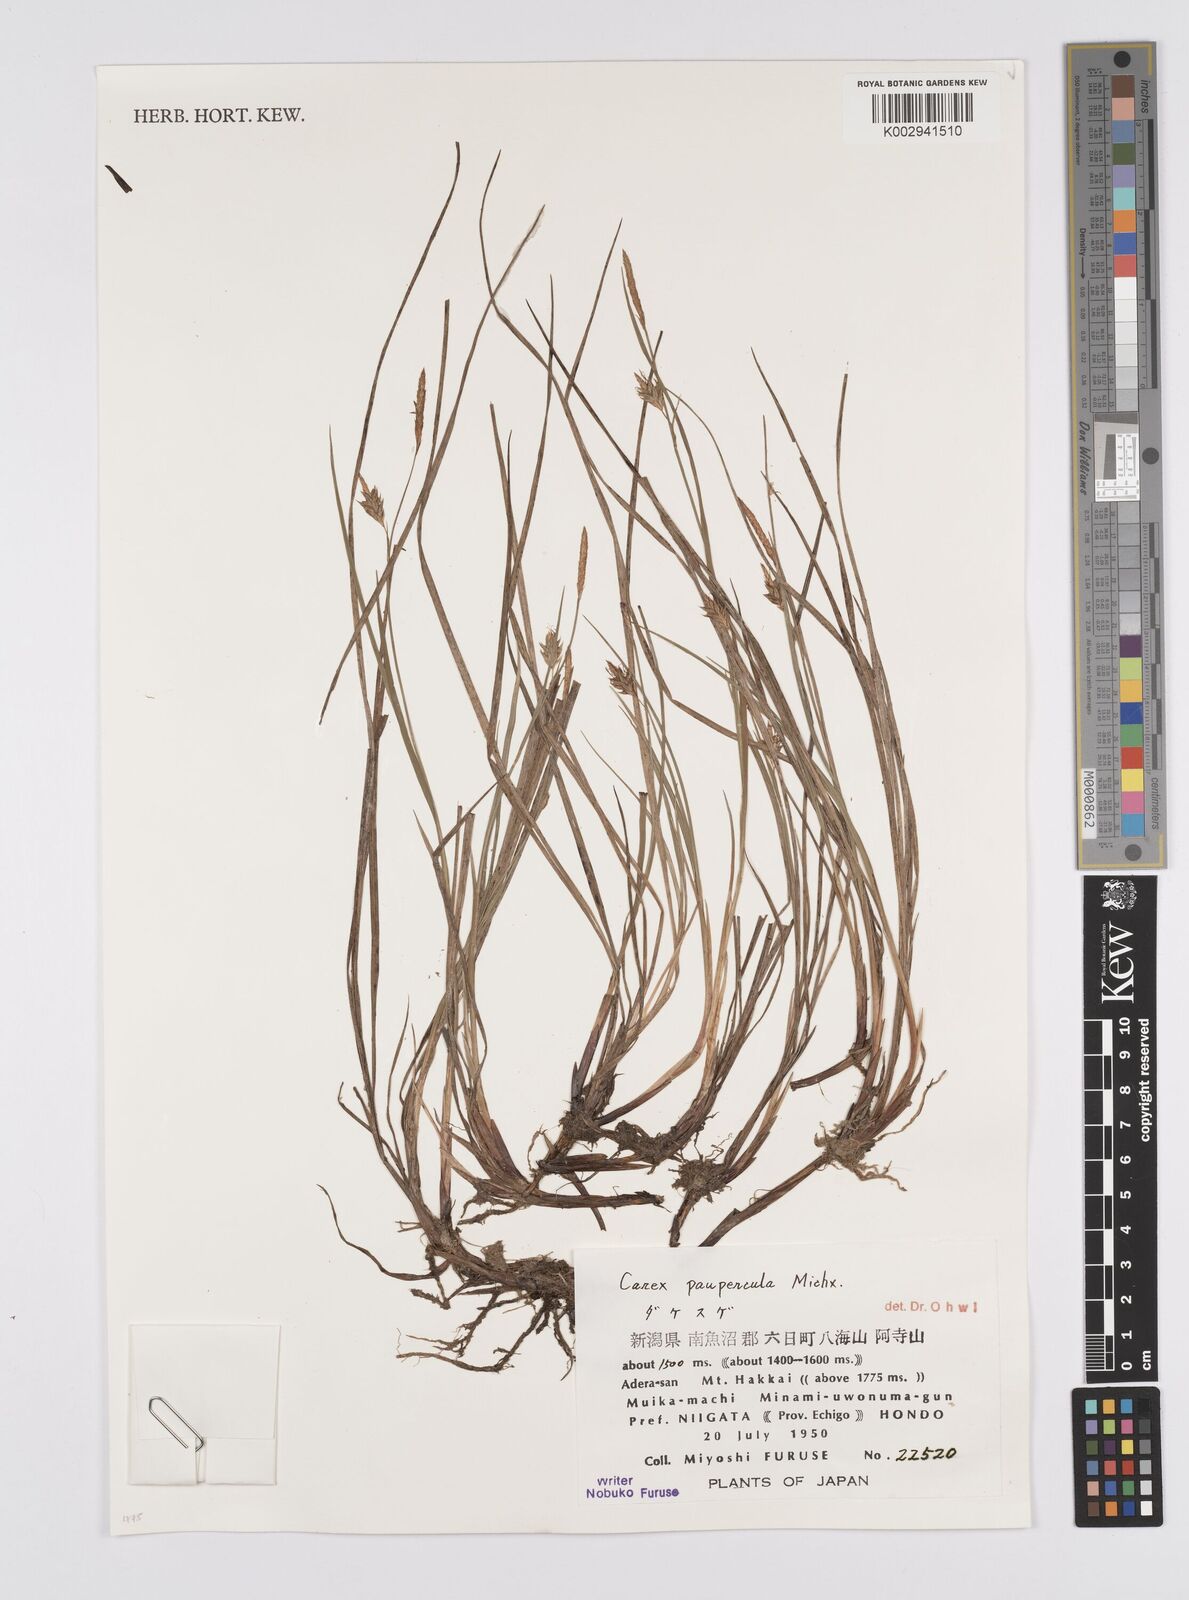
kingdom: Plantae
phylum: Tracheophyta
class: Liliopsida
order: Poales
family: Cyperaceae
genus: Carex
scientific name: Carex magellanica
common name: Bog sedge
